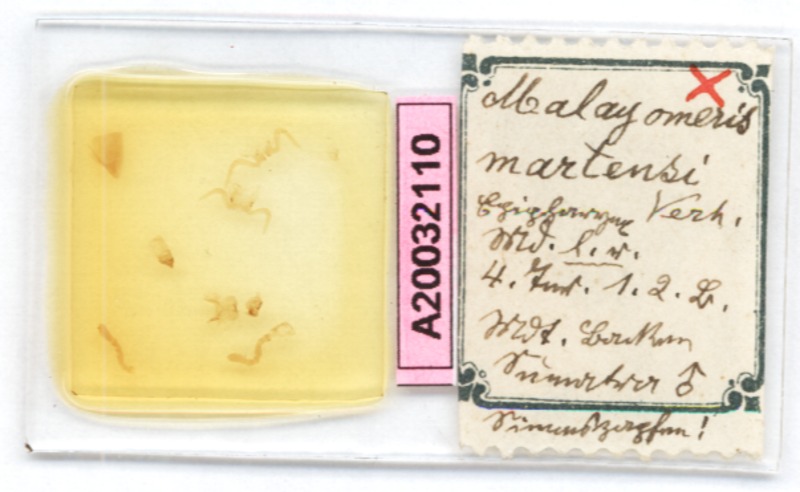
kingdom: Animalia
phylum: Arthropoda
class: Diplopoda
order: Glomerida
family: Glomeridae
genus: Malayomeris
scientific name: Malayomeris martensi
